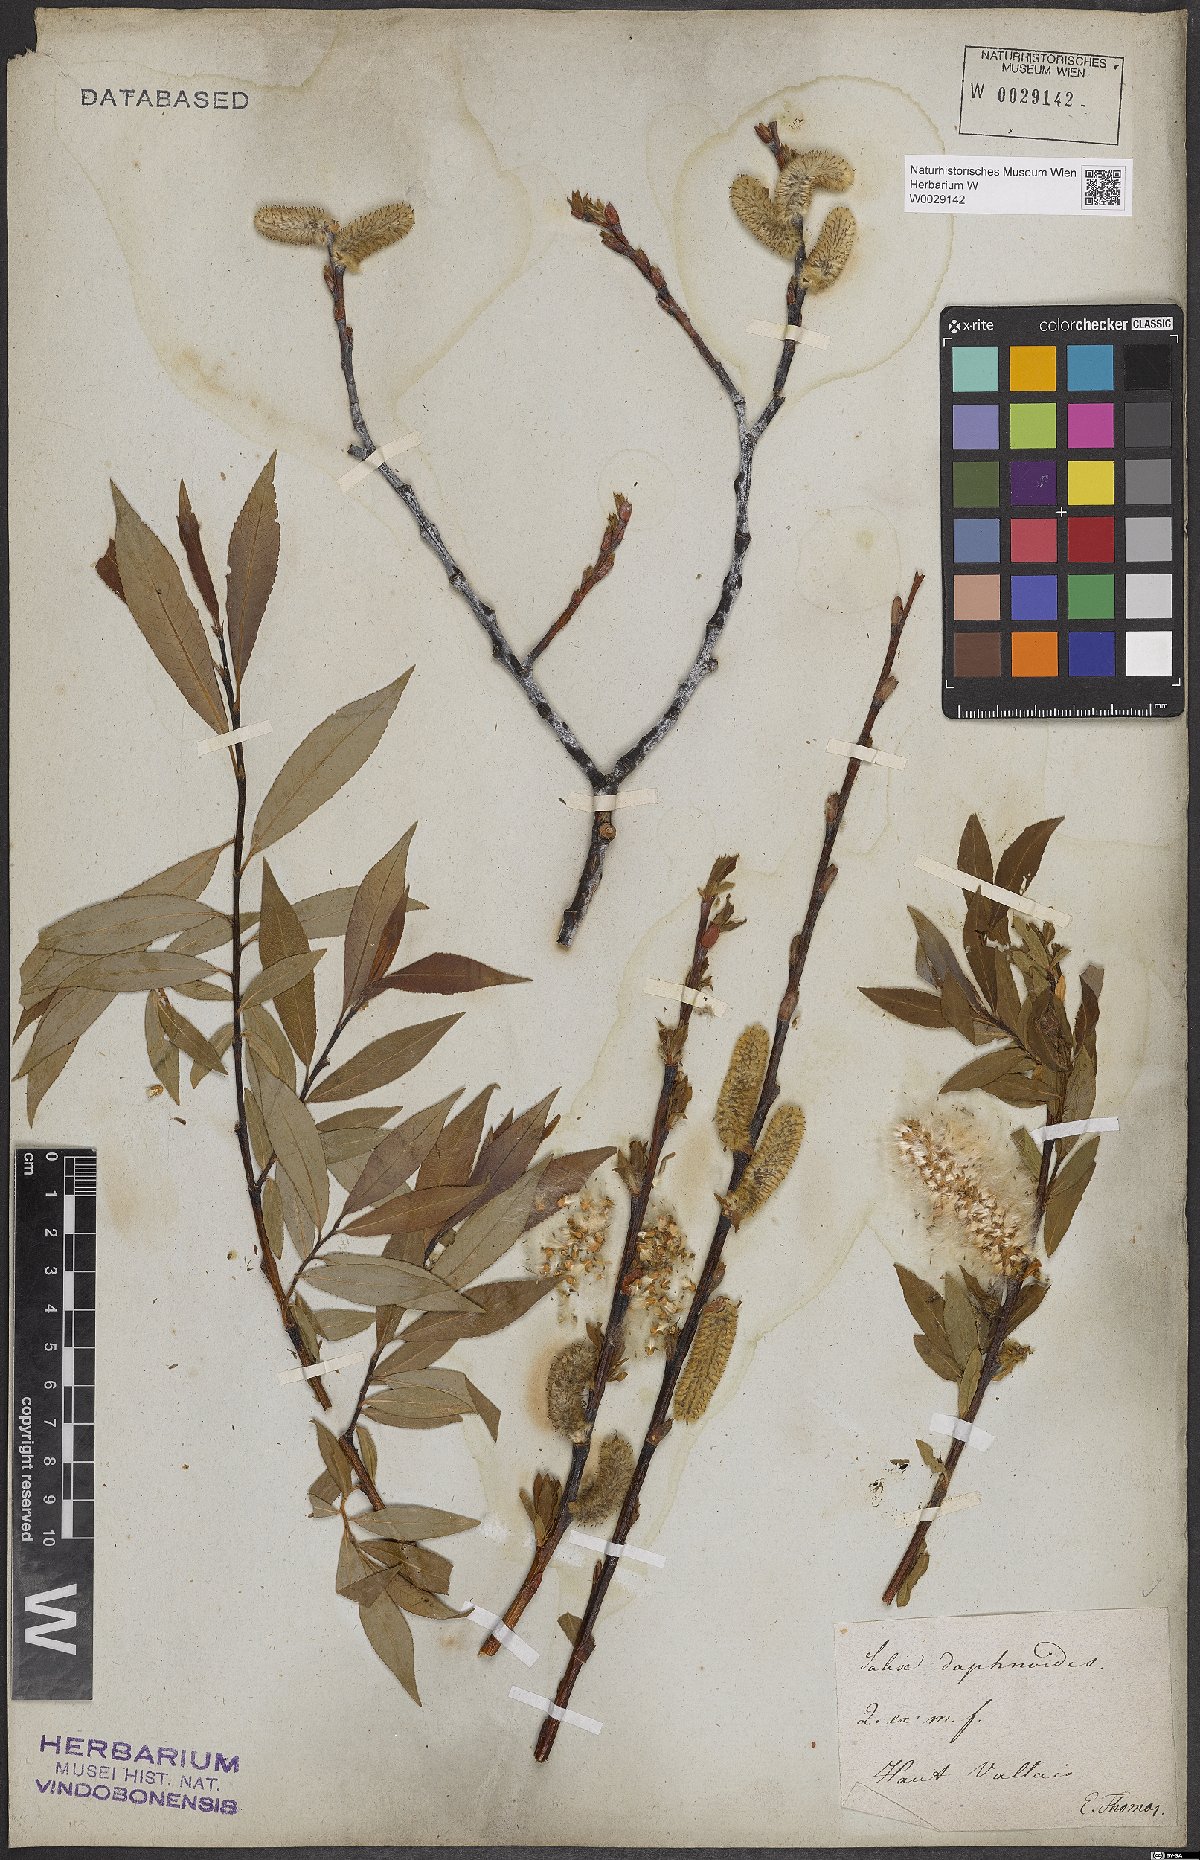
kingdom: Plantae
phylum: Tracheophyta
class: Magnoliopsida
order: Malpighiales
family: Salicaceae
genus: Salix
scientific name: Salix daphnoides
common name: European violet-willow
